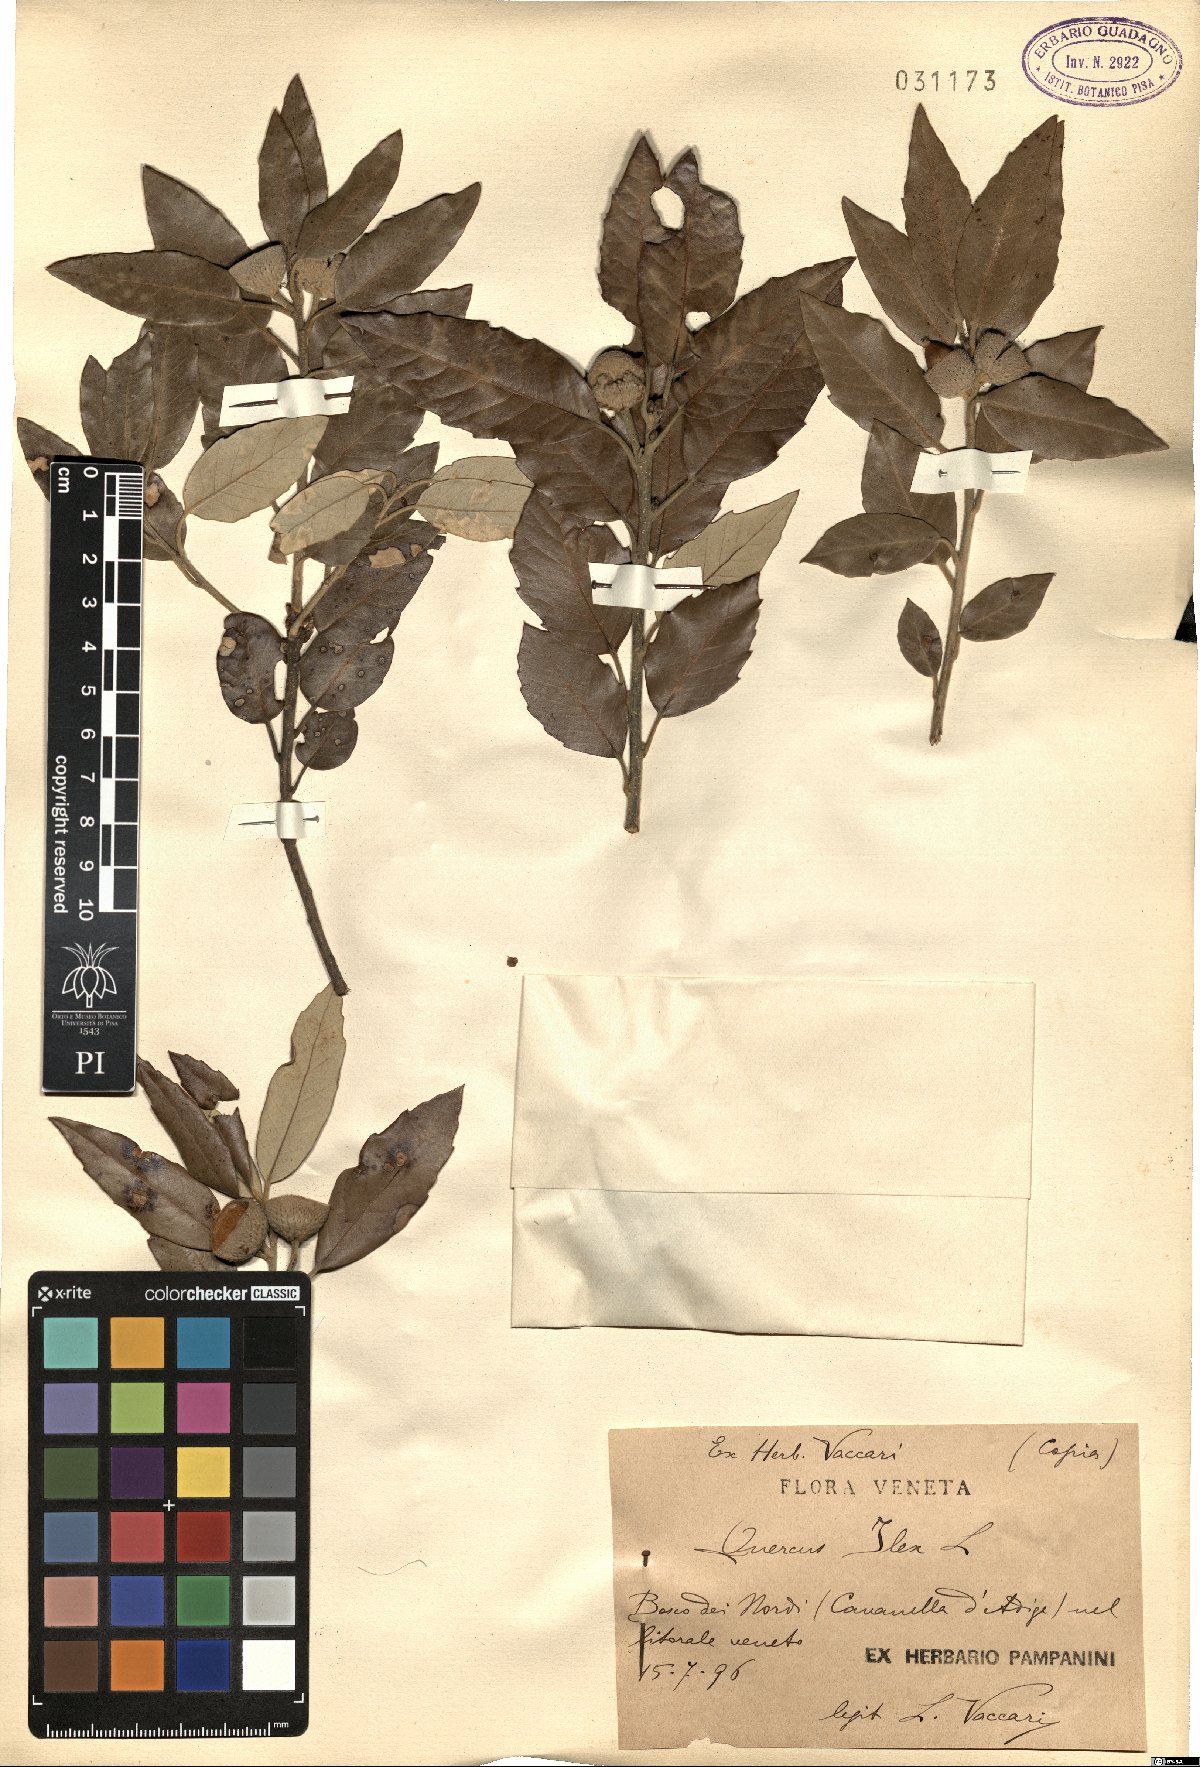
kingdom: Plantae
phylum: Tracheophyta
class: Magnoliopsida
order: Fagales
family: Fagaceae
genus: Quercus
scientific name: Quercus ilex
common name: Evergreen oak
